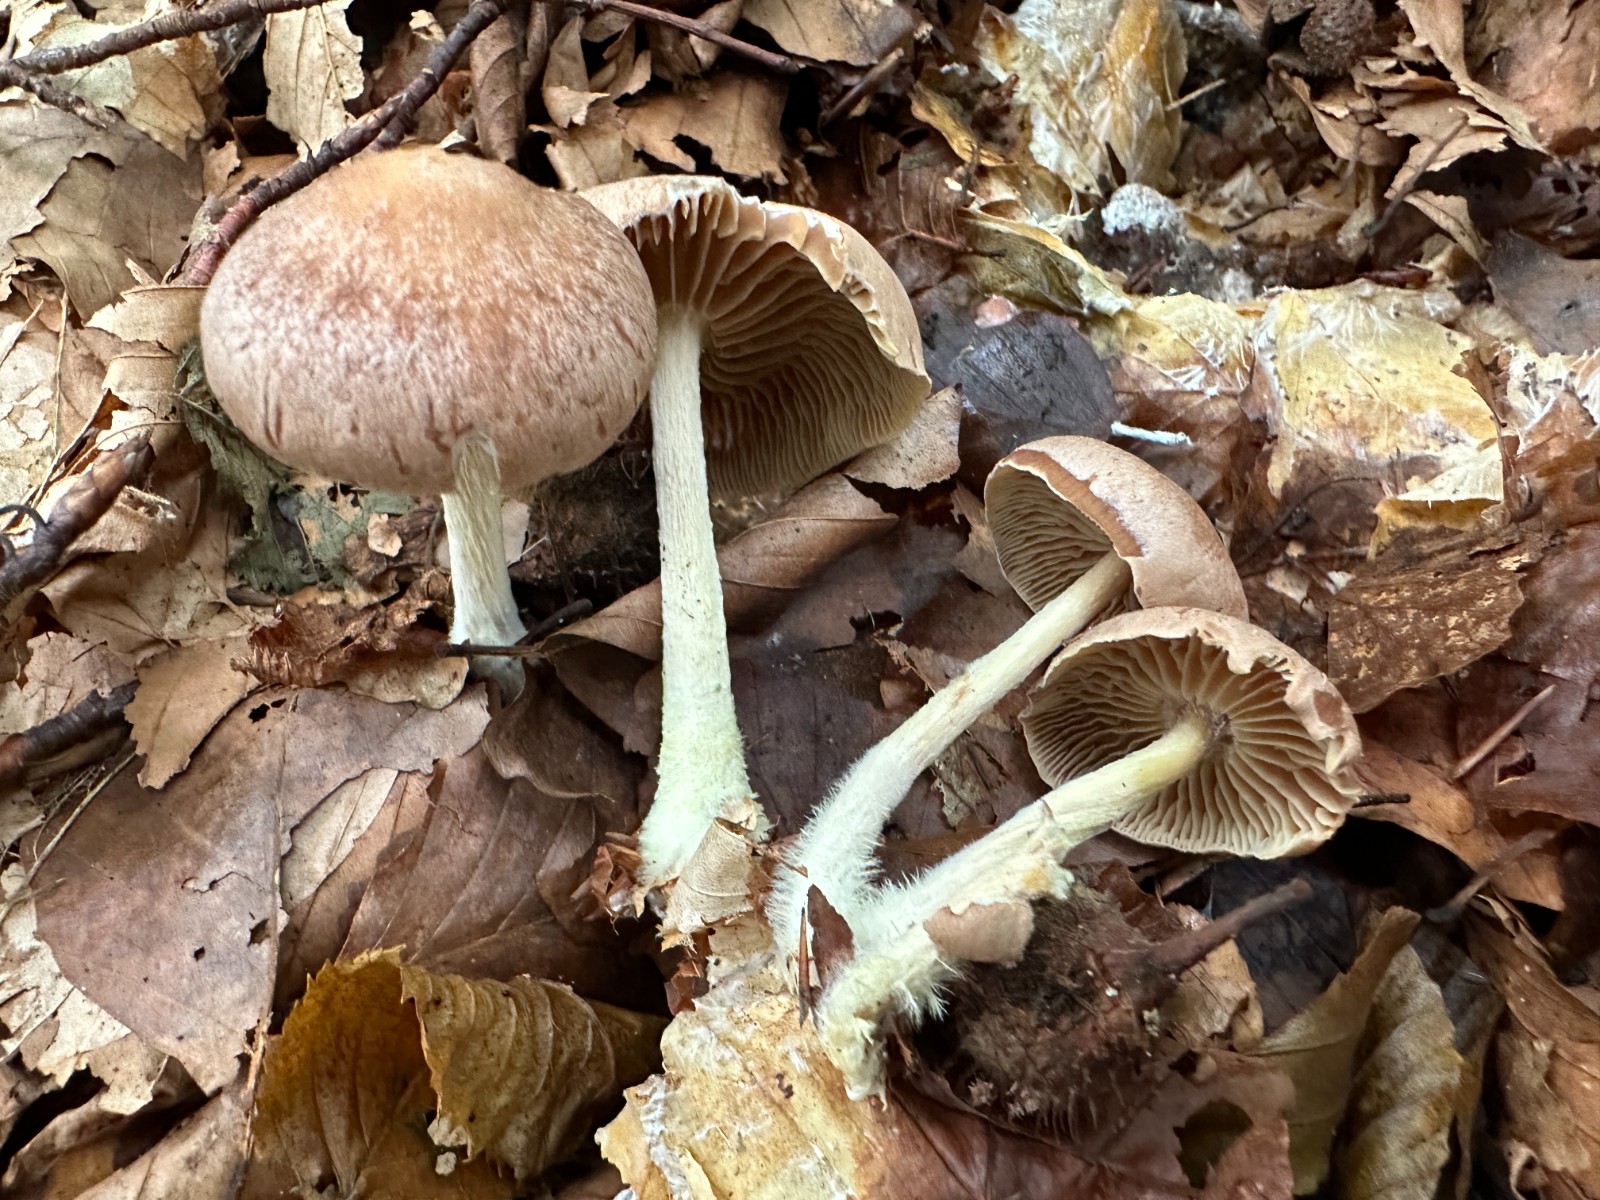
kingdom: Fungi
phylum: Basidiomycota
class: Agaricomycetes
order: Agaricales
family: Omphalotaceae
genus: Collybiopsis
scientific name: Collybiopsis peronata
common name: bestøvlet fladhat
